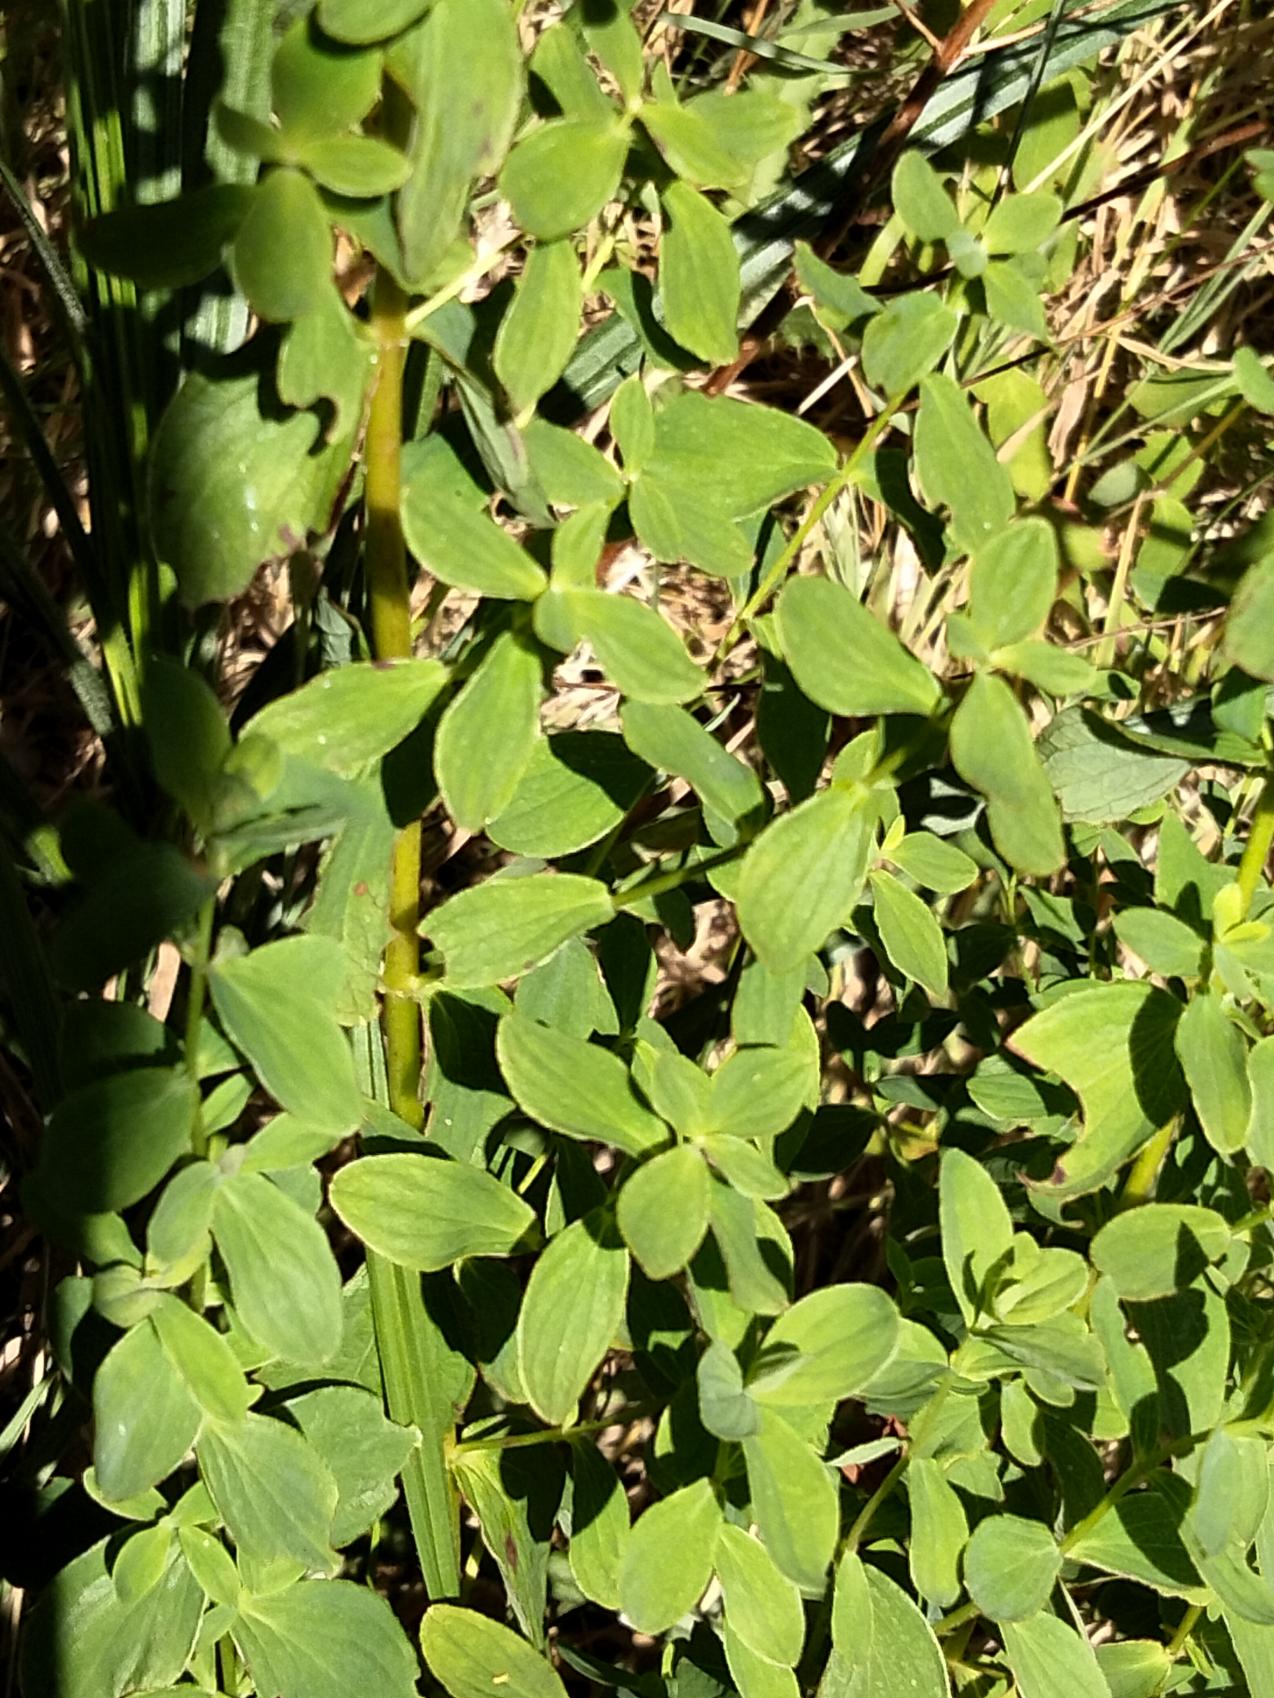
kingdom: Plantae
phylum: Tracheophyta
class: Magnoliopsida
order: Malpighiales
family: Hypericaceae
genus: Hypericum
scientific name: Hypericum perforatum
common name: Prikbladet perikon
